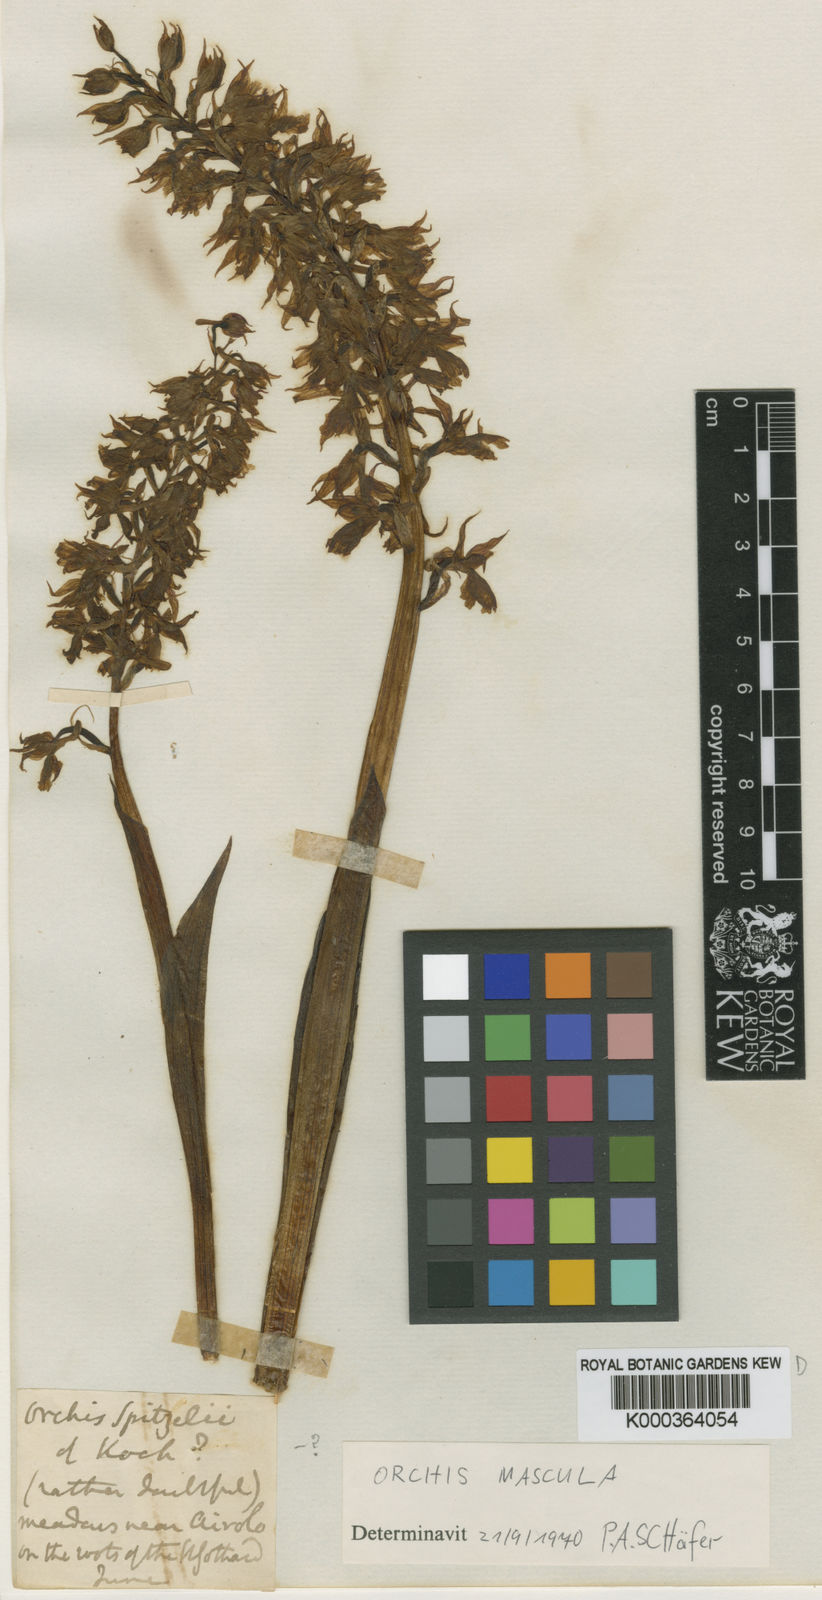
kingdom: Plantae
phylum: Tracheophyta
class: Liliopsida
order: Asparagales
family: Orchidaceae
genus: Orchis
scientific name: Orchis mascula
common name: Early-purple orchid
